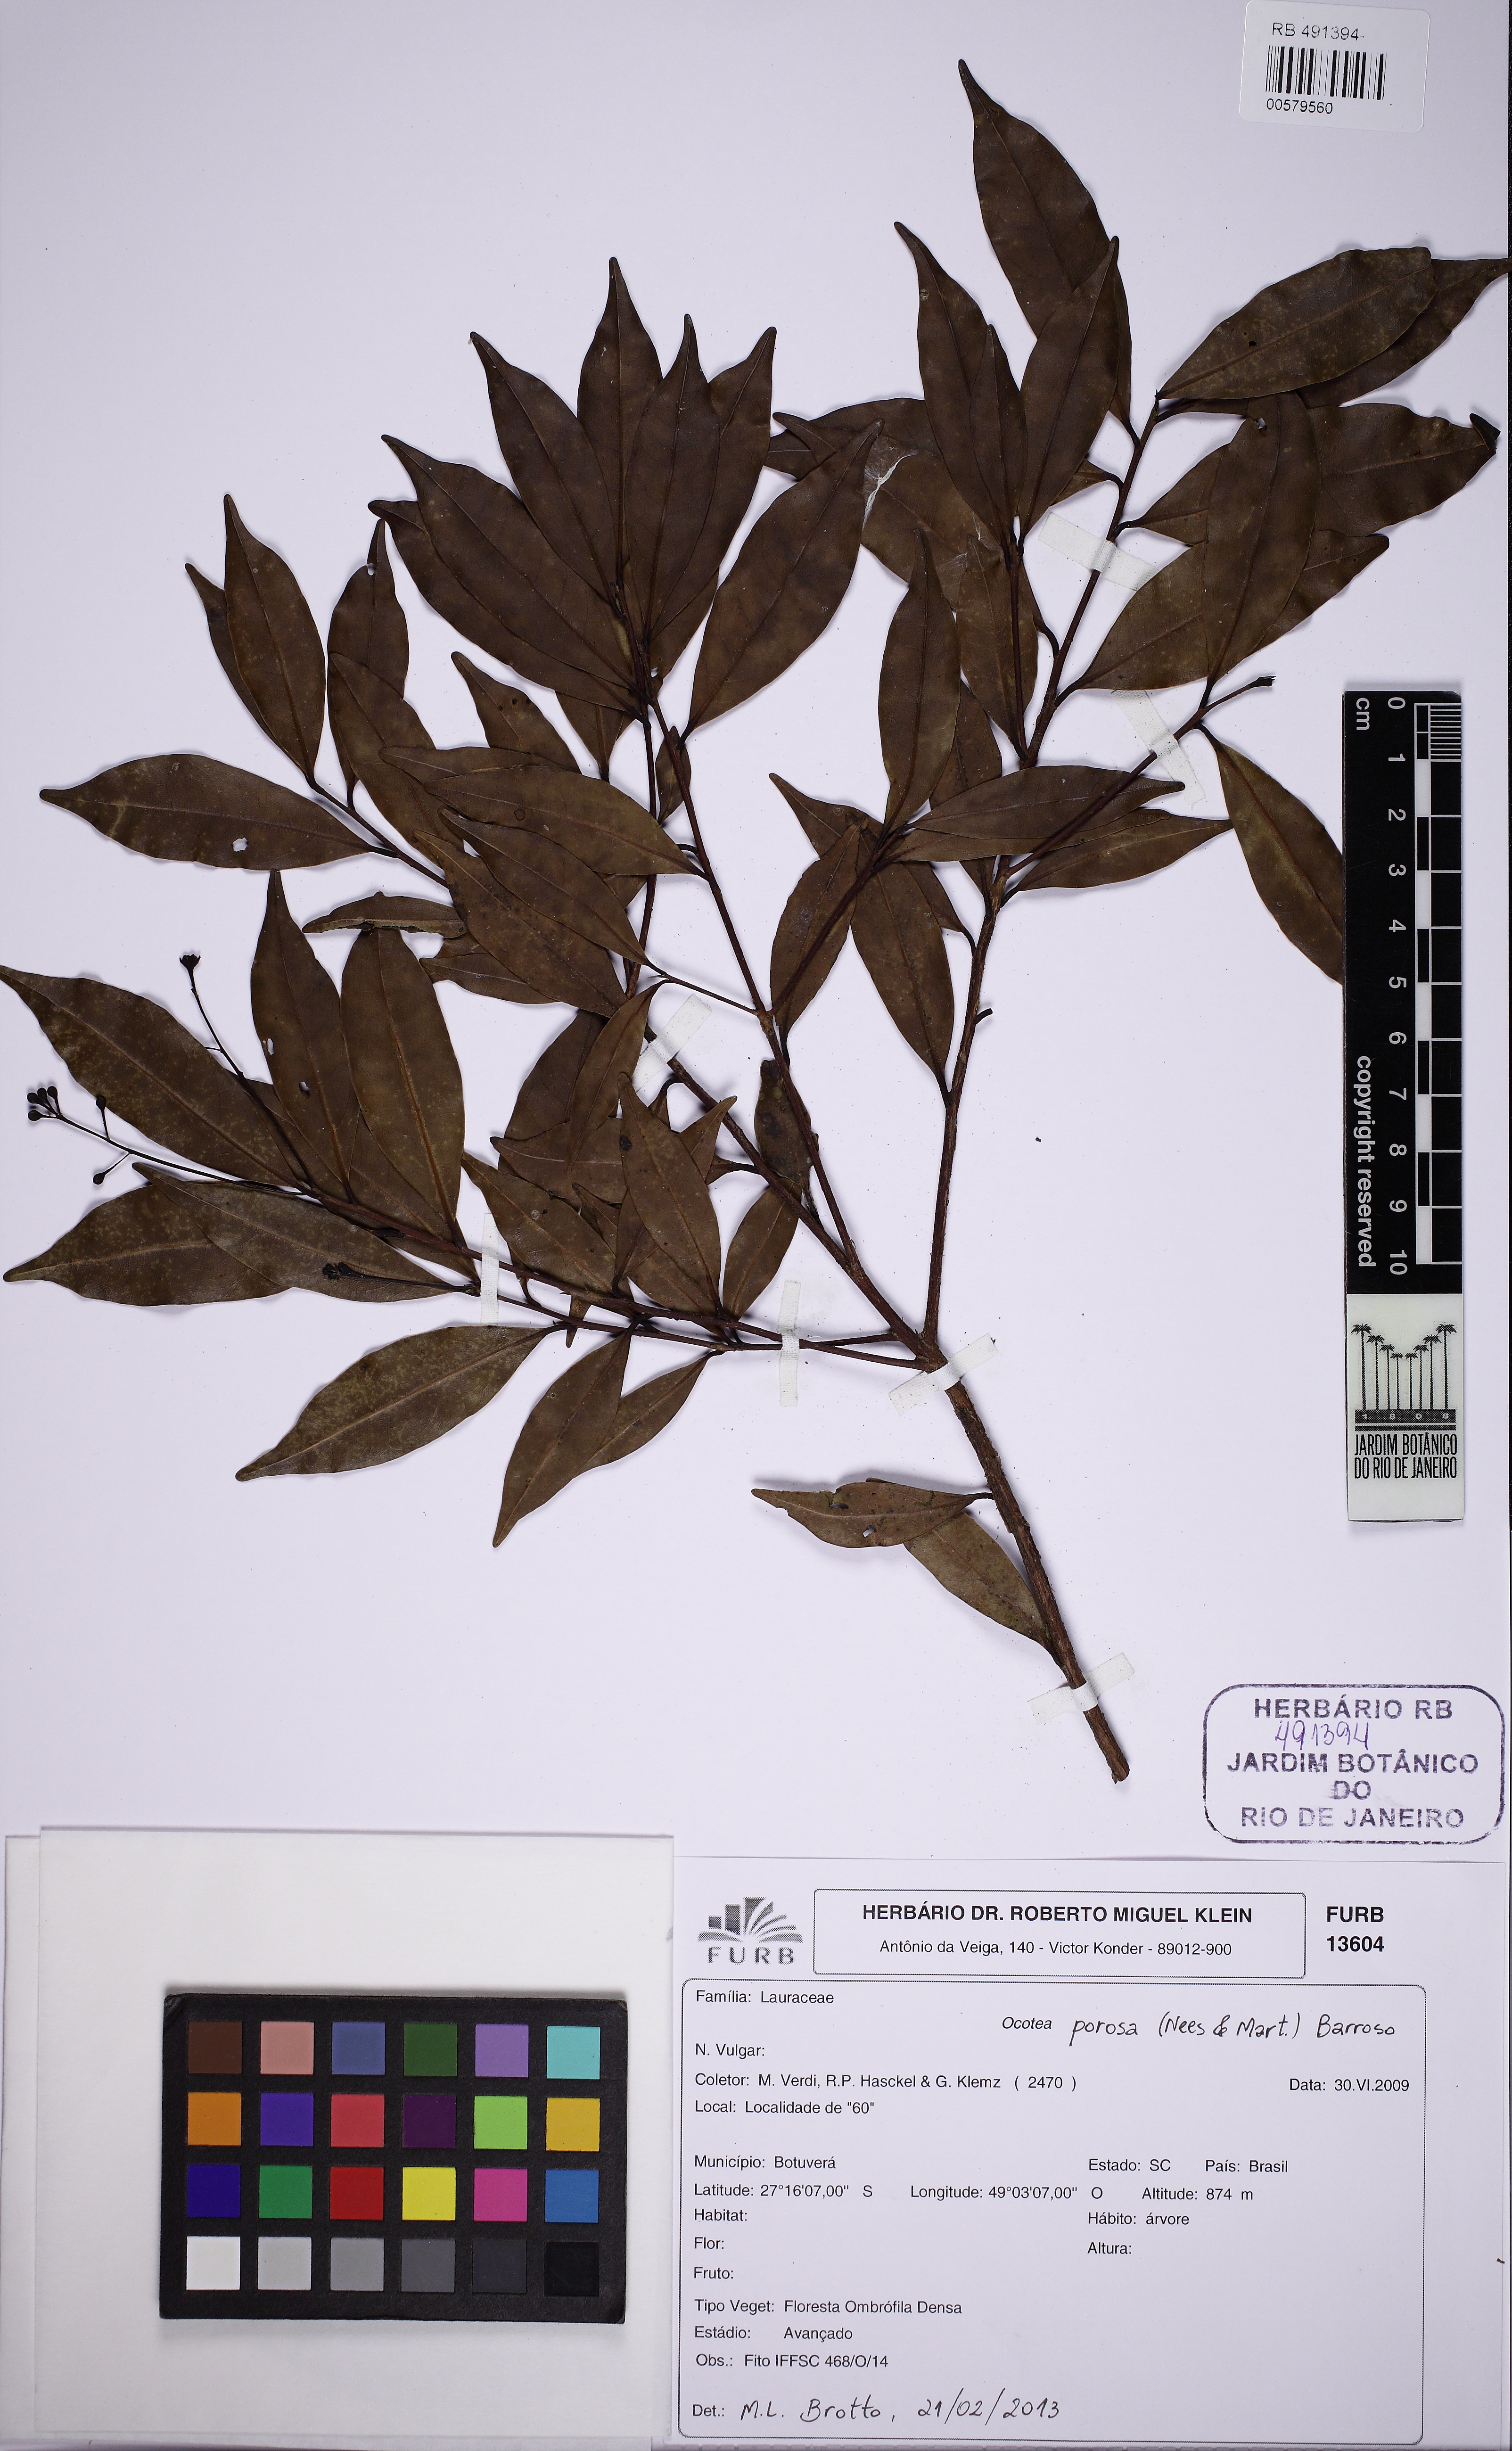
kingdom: Plantae
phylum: Tracheophyta
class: Magnoliopsida
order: Laurales
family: Lauraceae
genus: Ocotea
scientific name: Ocotea porosa
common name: Brazilian-walnut
